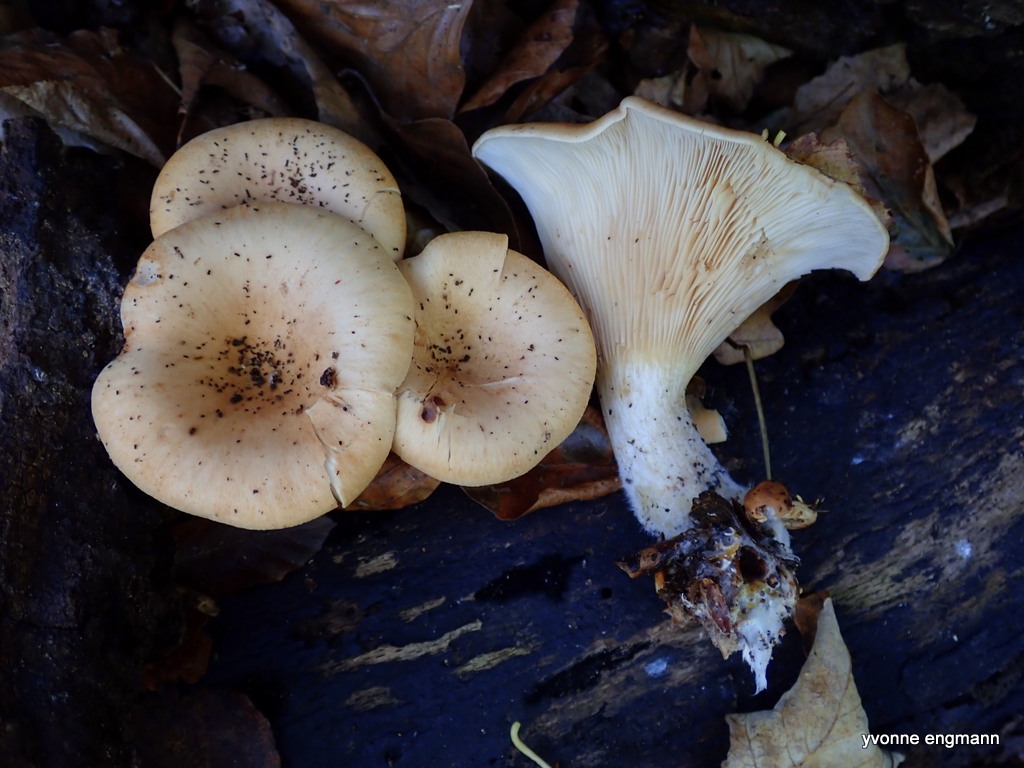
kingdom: Fungi
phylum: Basidiomycota
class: Agaricomycetes
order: Agaricales
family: Tricholomataceae
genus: Paralepista
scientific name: Paralepista flaccida
